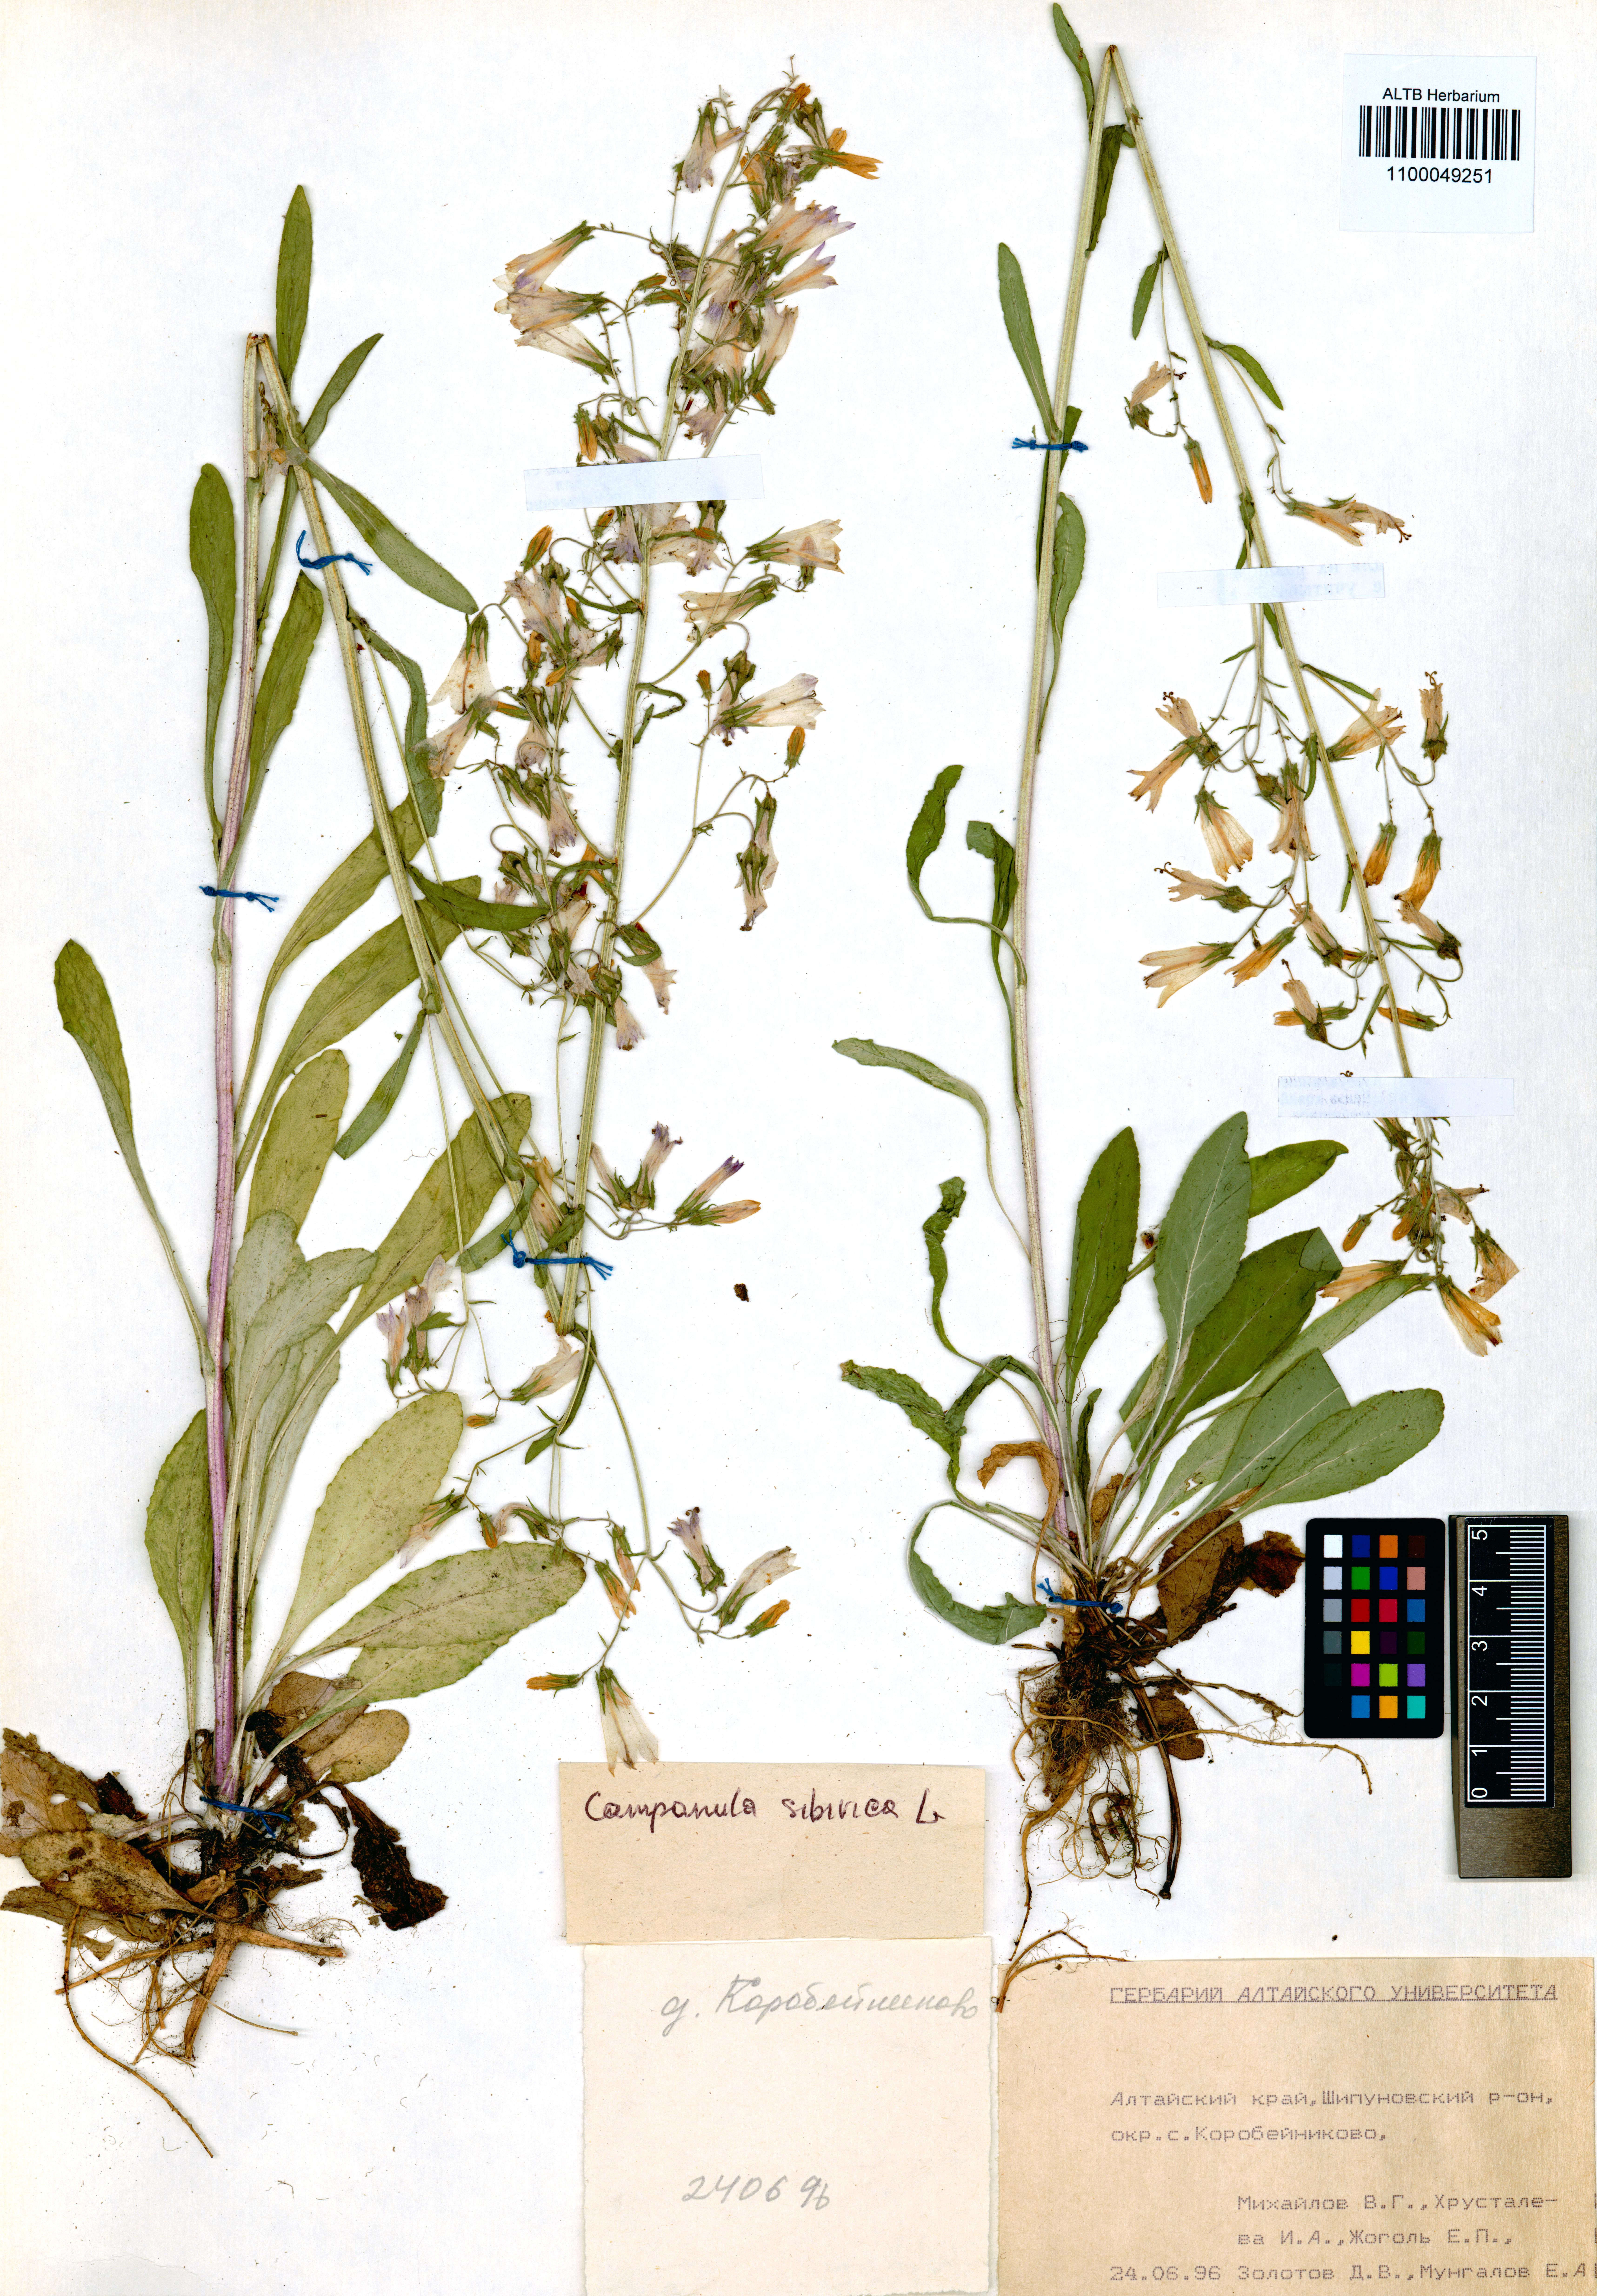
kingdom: Plantae
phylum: Tracheophyta
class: Magnoliopsida
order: Asterales
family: Campanulaceae
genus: Campanula
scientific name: Campanula sibirica
